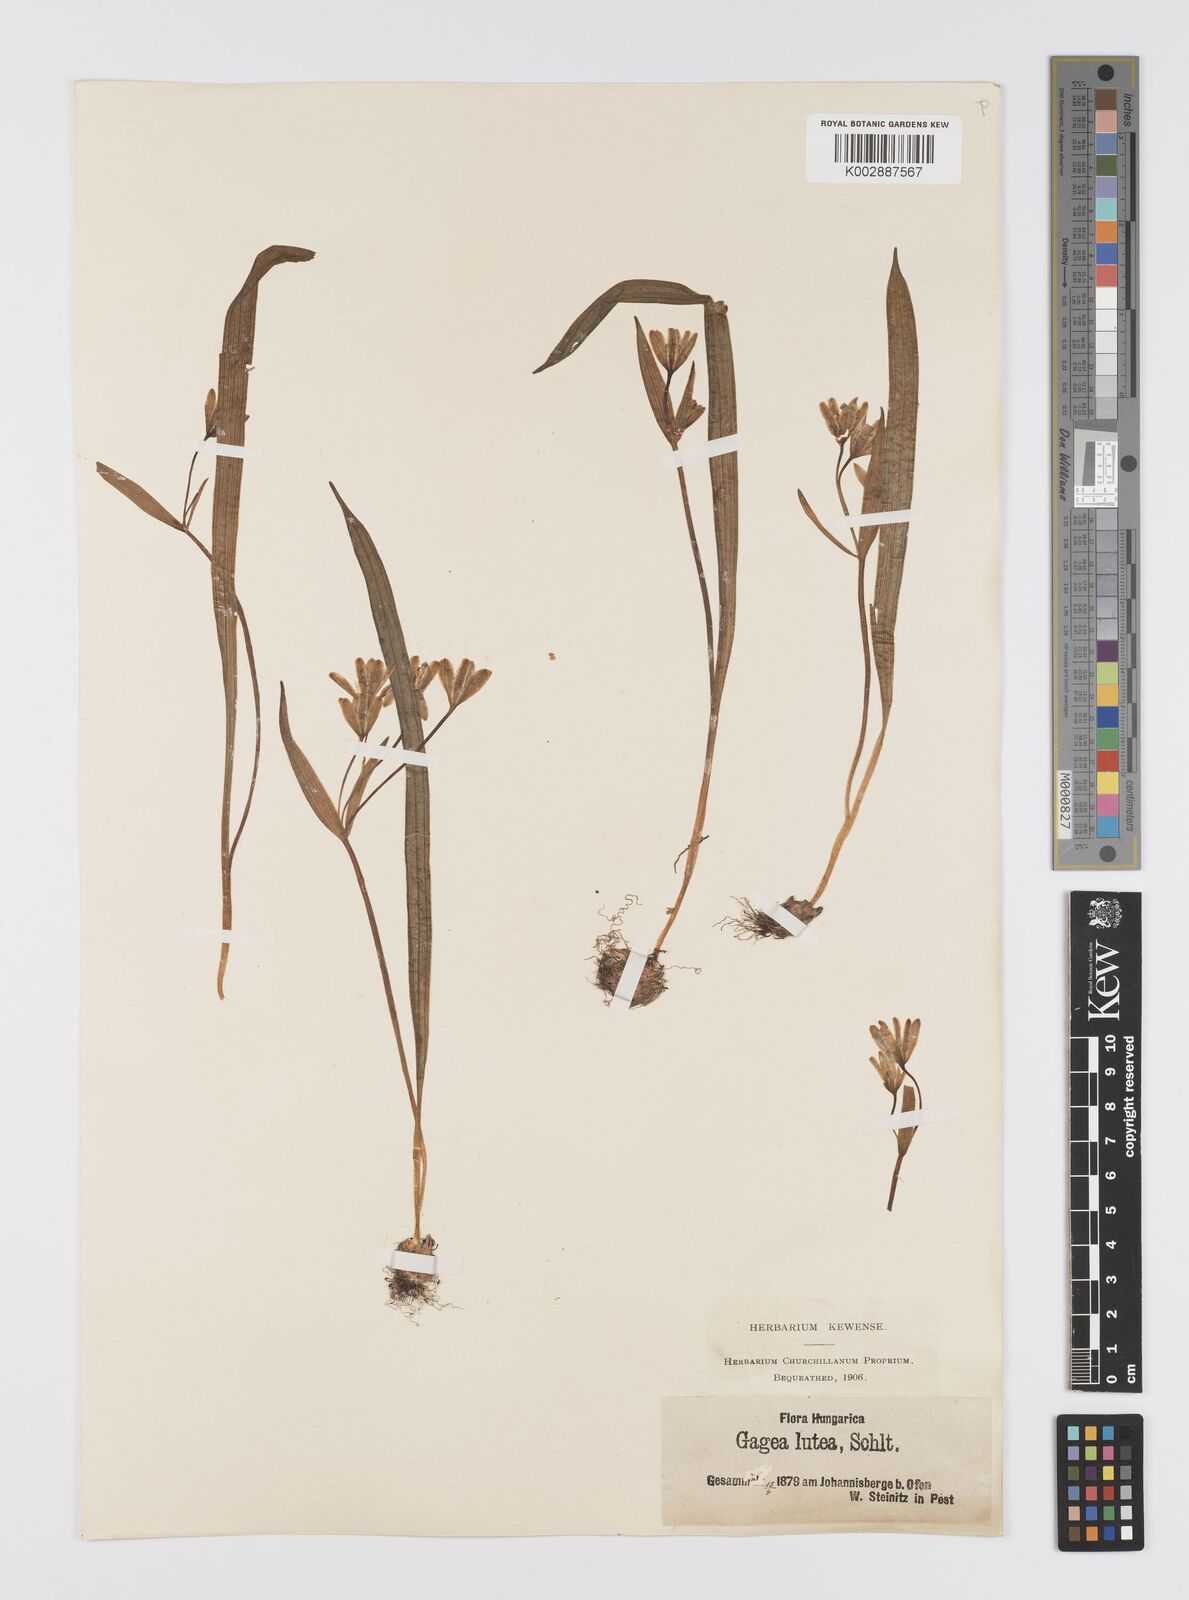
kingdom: Plantae
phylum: Tracheophyta
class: Liliopsida
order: Liliales
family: Liliaceae
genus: Gagea
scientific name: Gagea lutea
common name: Yellow star-of-bethlehem
